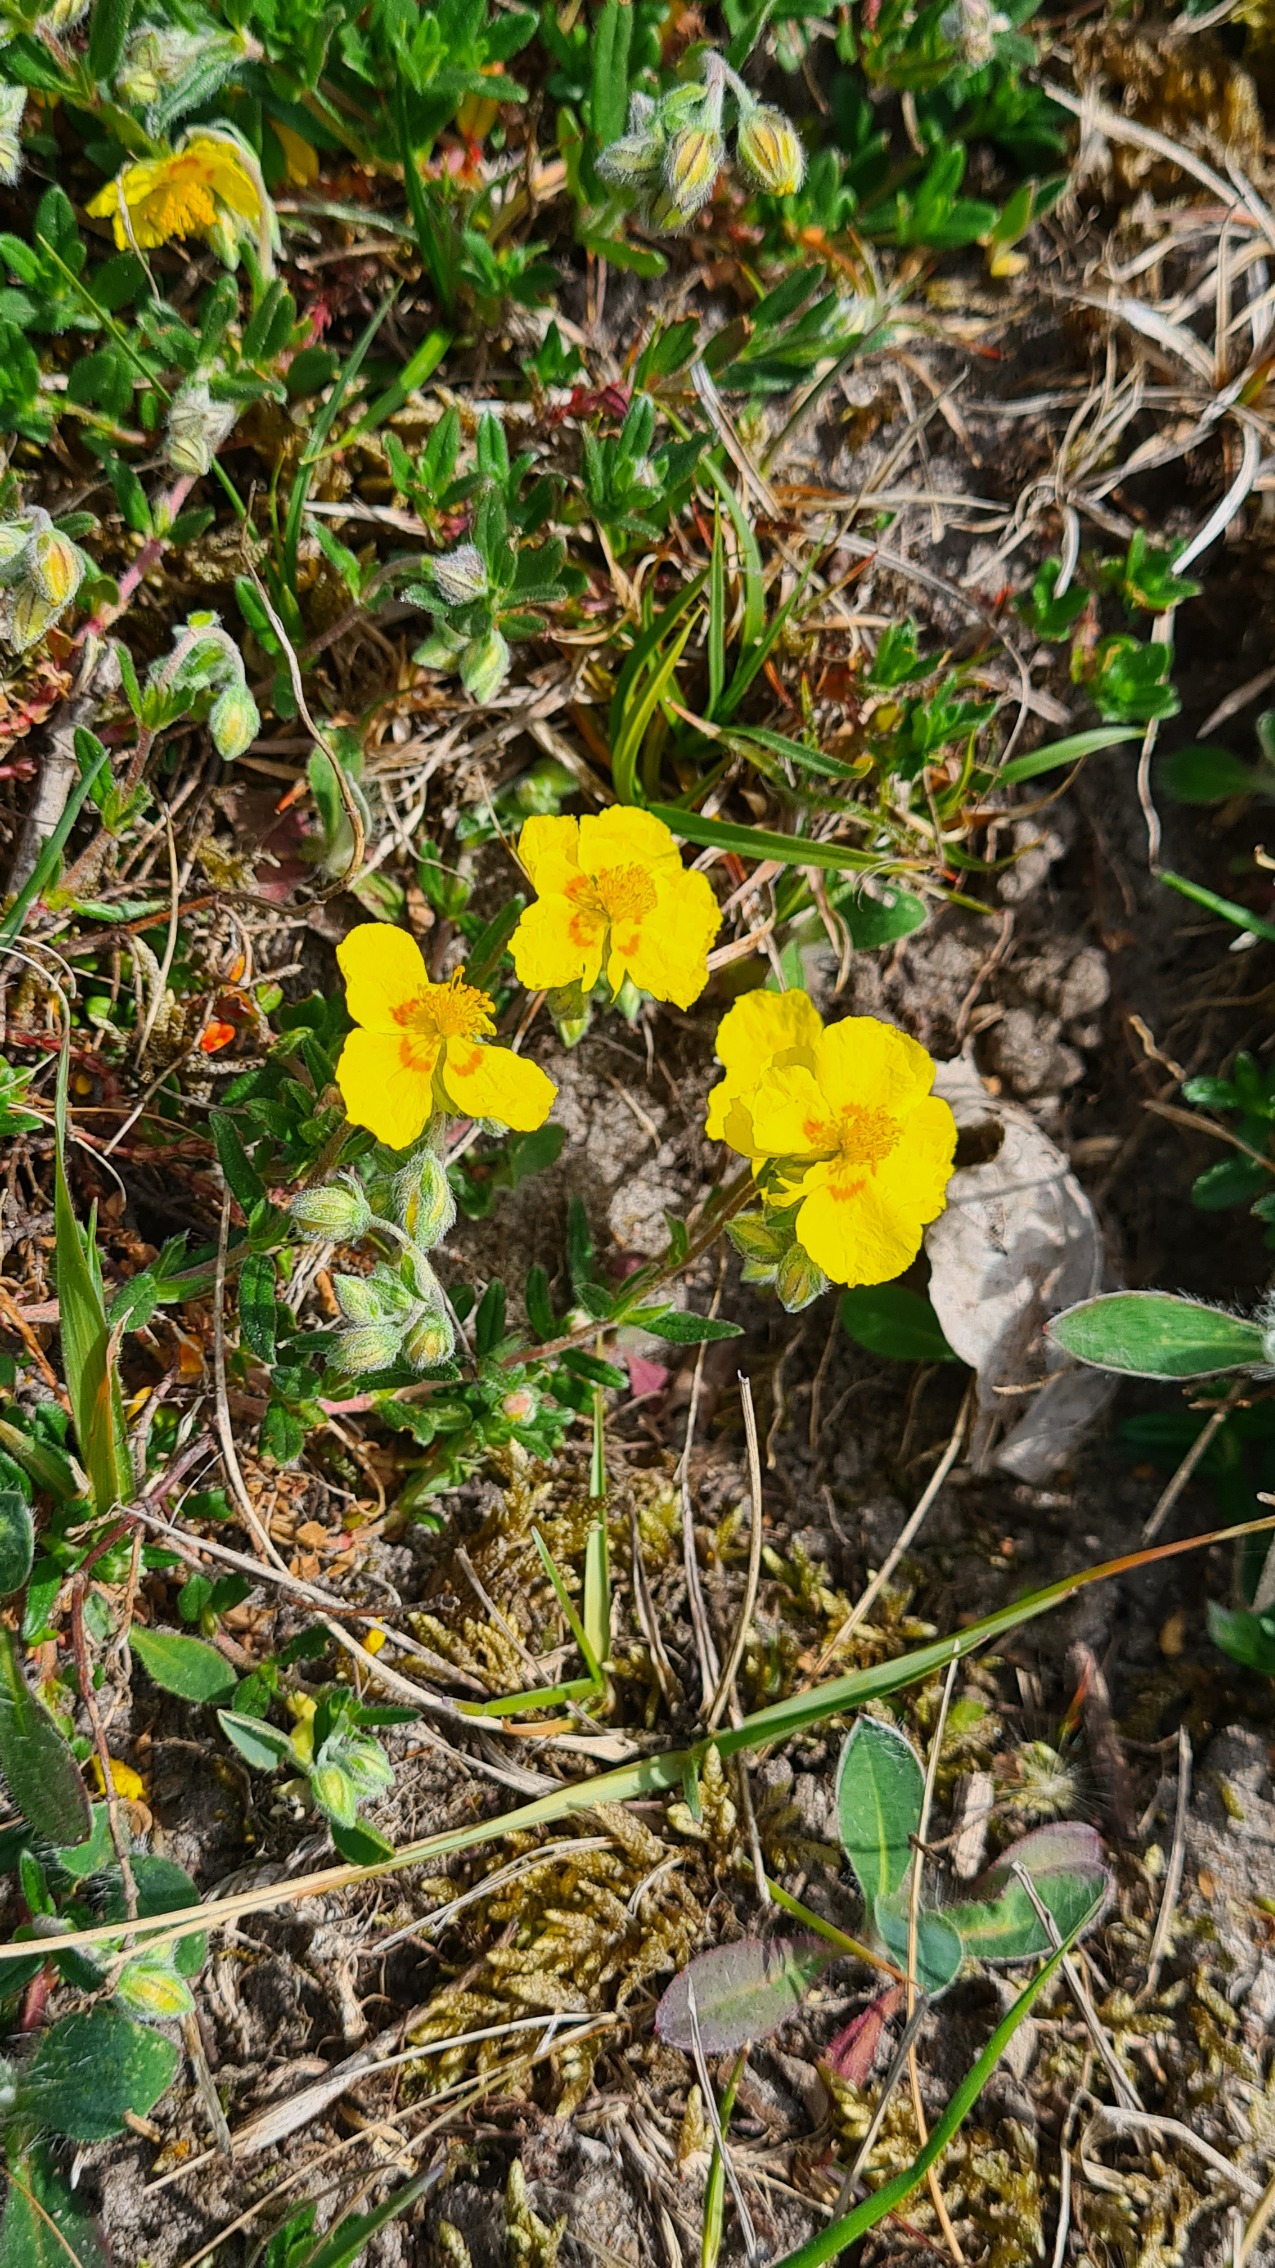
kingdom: Plantae
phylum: Tracheophyta
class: Magnoliopsida
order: Malvales
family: Cistaceae
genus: Helianthemum
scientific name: Helianthemum nummularium
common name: Soløje
